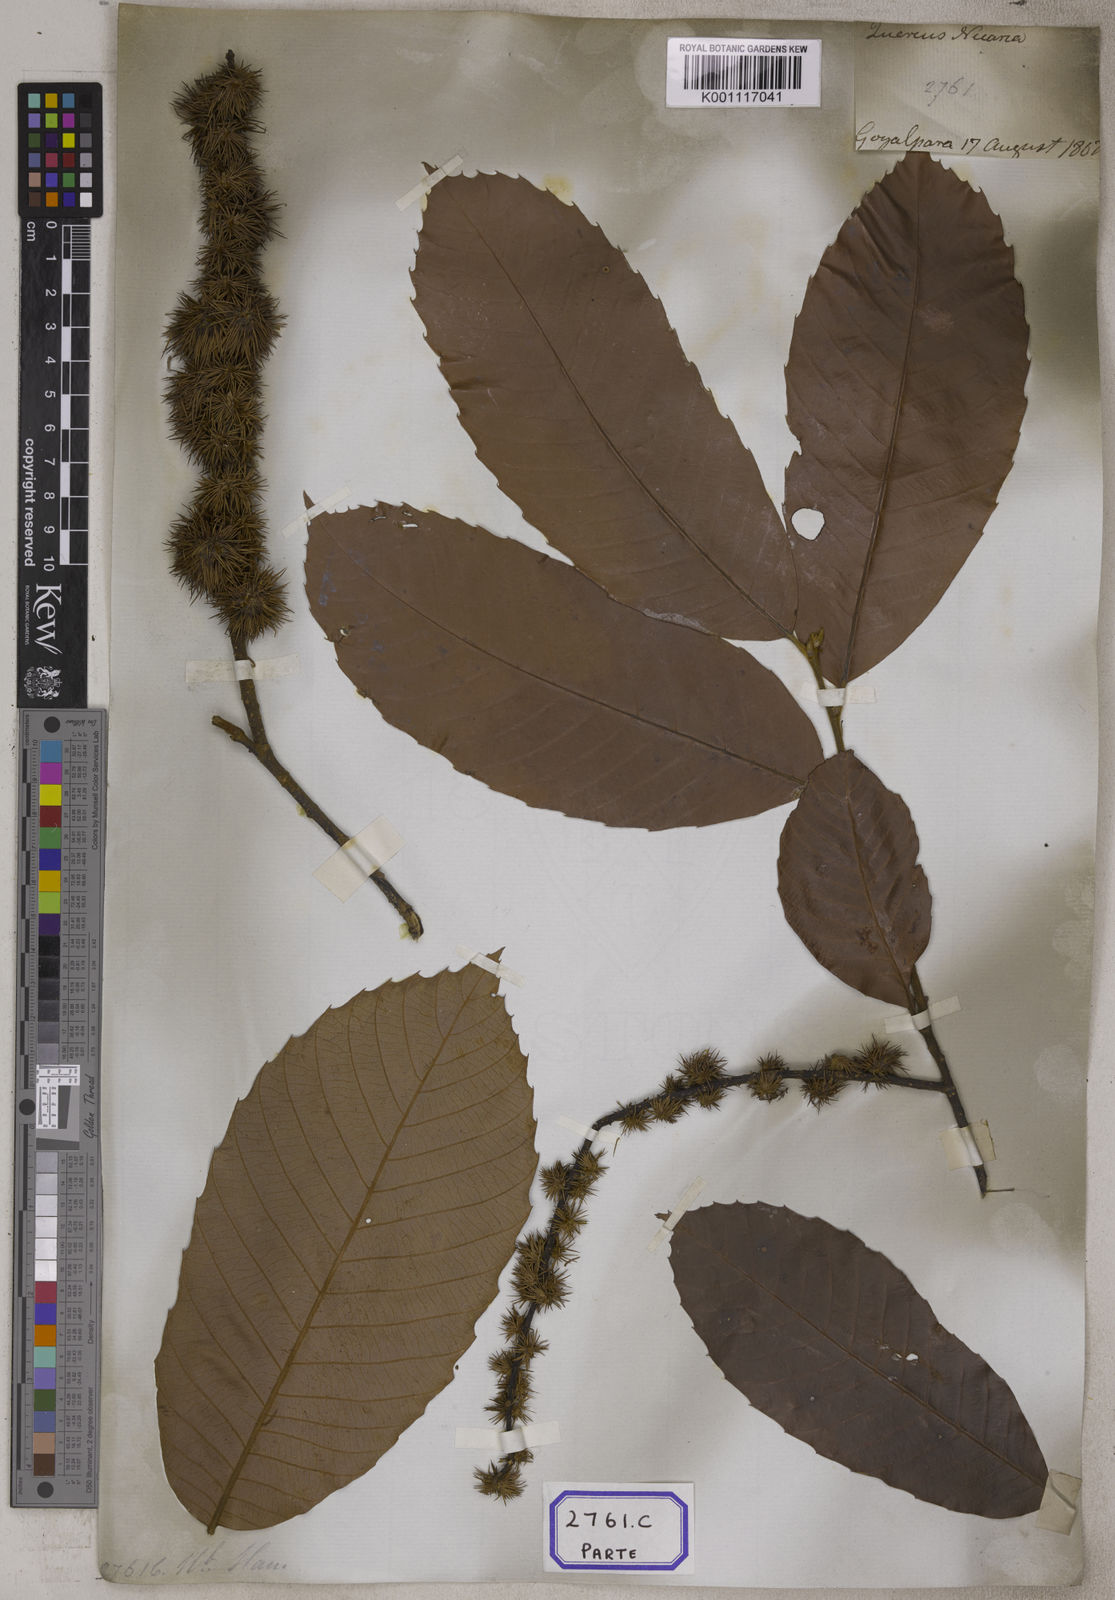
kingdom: Plantae
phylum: Tracheophyta
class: Magnoliopsida
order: Fagales
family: Fagaceae
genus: Castanopsis
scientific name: Castanopsis indica
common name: Indian-chestnut
